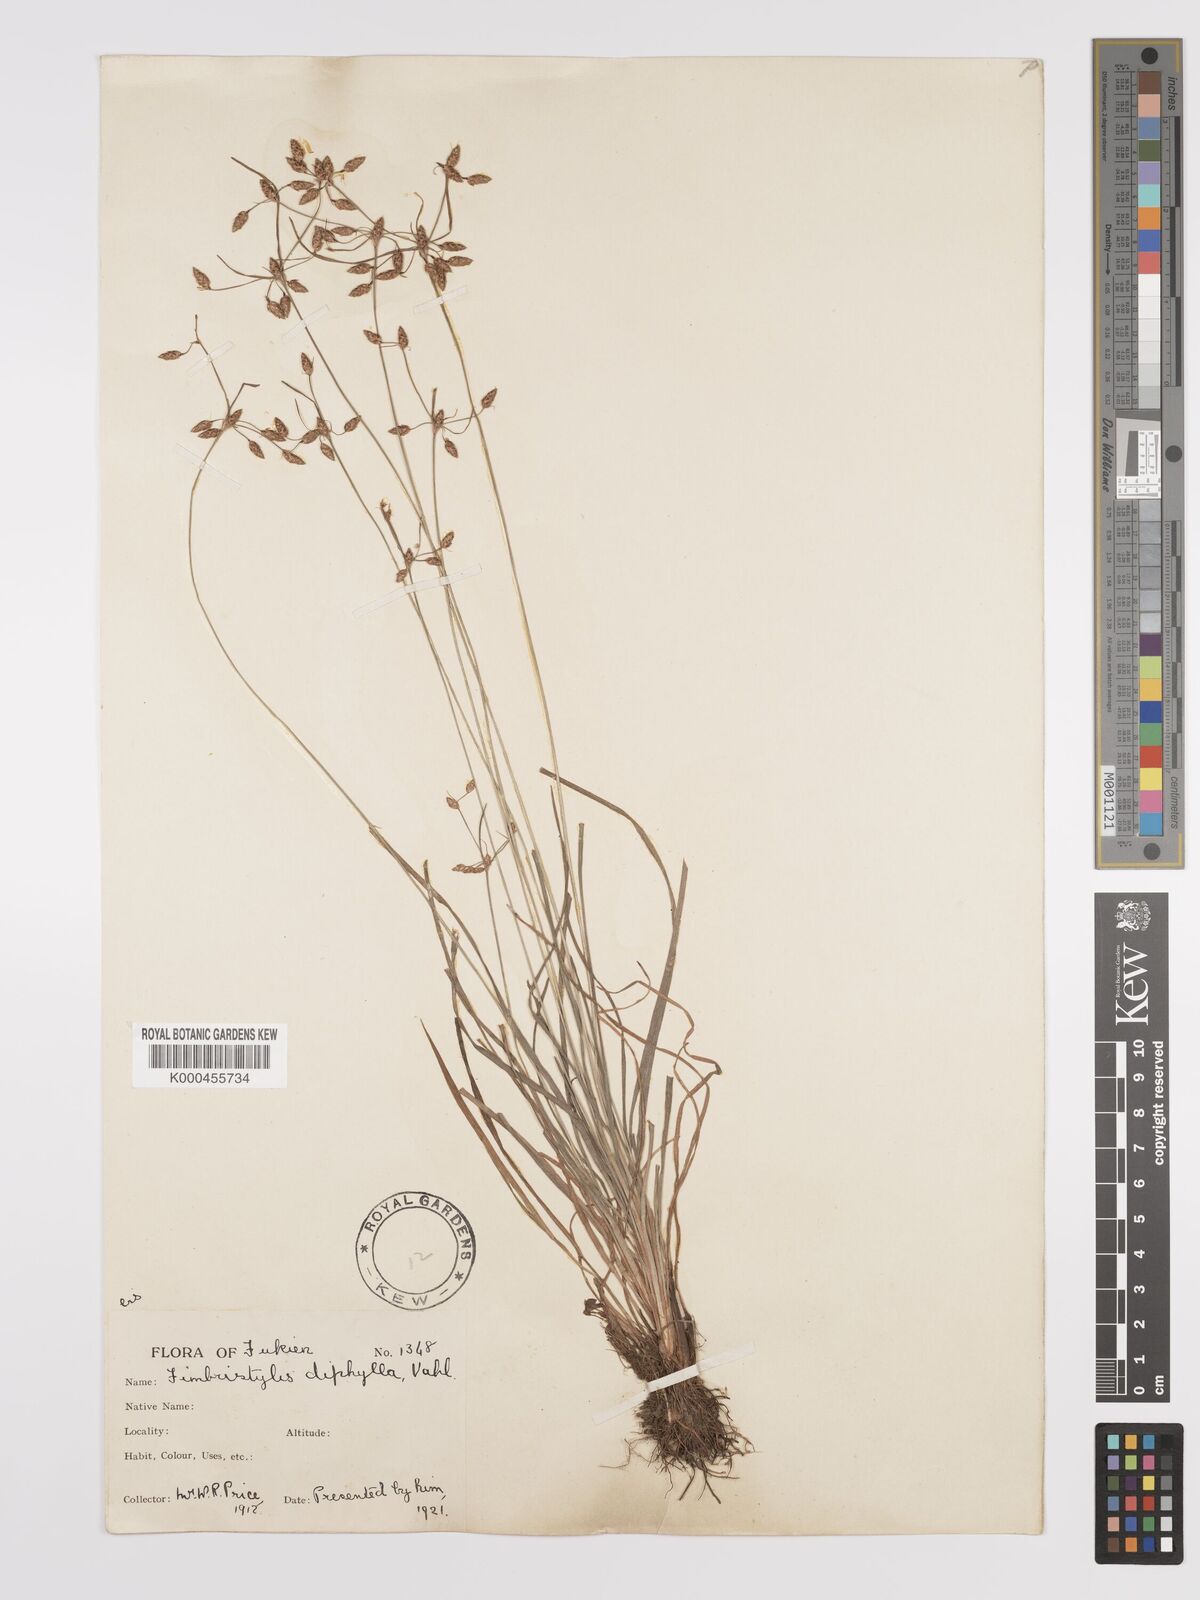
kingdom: Plantae
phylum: Tracheophyta
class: Liliopsida
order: Poales
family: Cyperaceae
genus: Fimbristylis
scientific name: Fimbristylis dichotoma
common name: Forked fimbry
